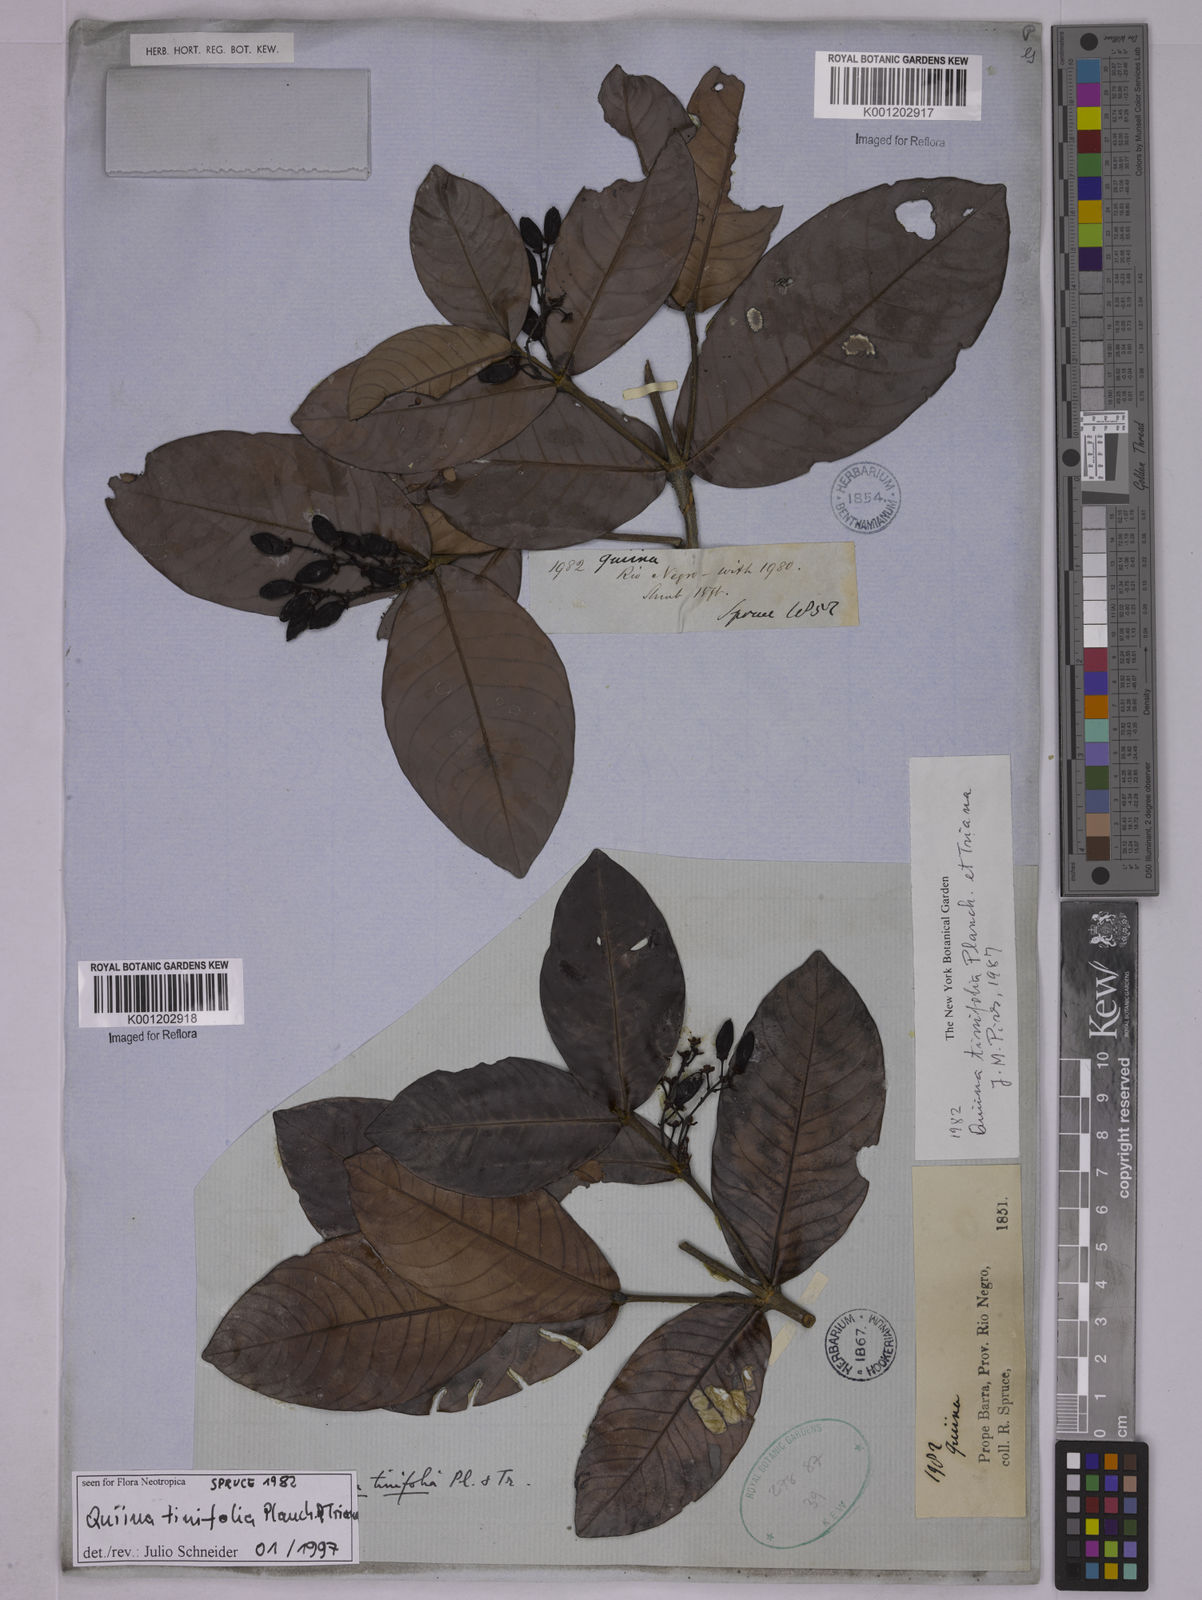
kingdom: Plantae
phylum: Tracheophyta
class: Magnoliopsida
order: Malpighiales
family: Quiinaceae
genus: Quiina
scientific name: Quiina tinifolia
